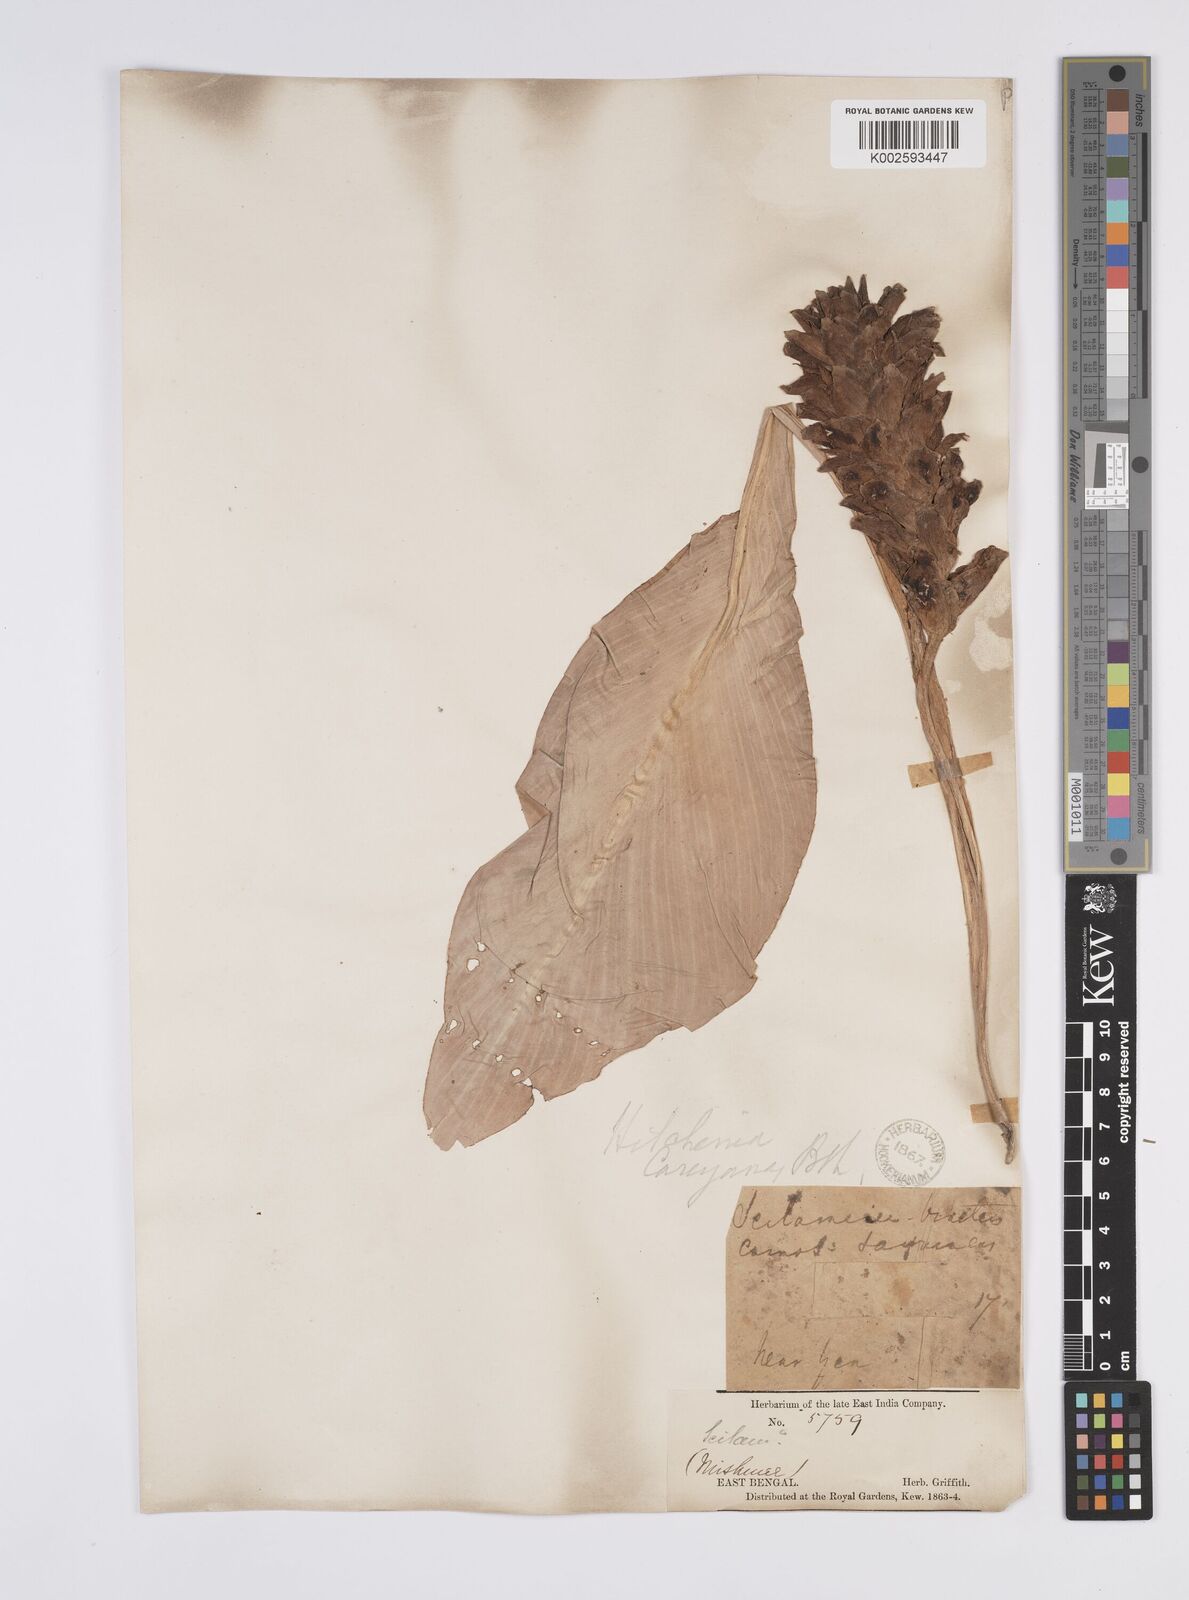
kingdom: Plantae
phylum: Tracheophyta
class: Liliopsida
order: Zingiberales
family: Zingiberaceae
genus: Larsenianthus
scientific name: Larsenianthus careyanus
